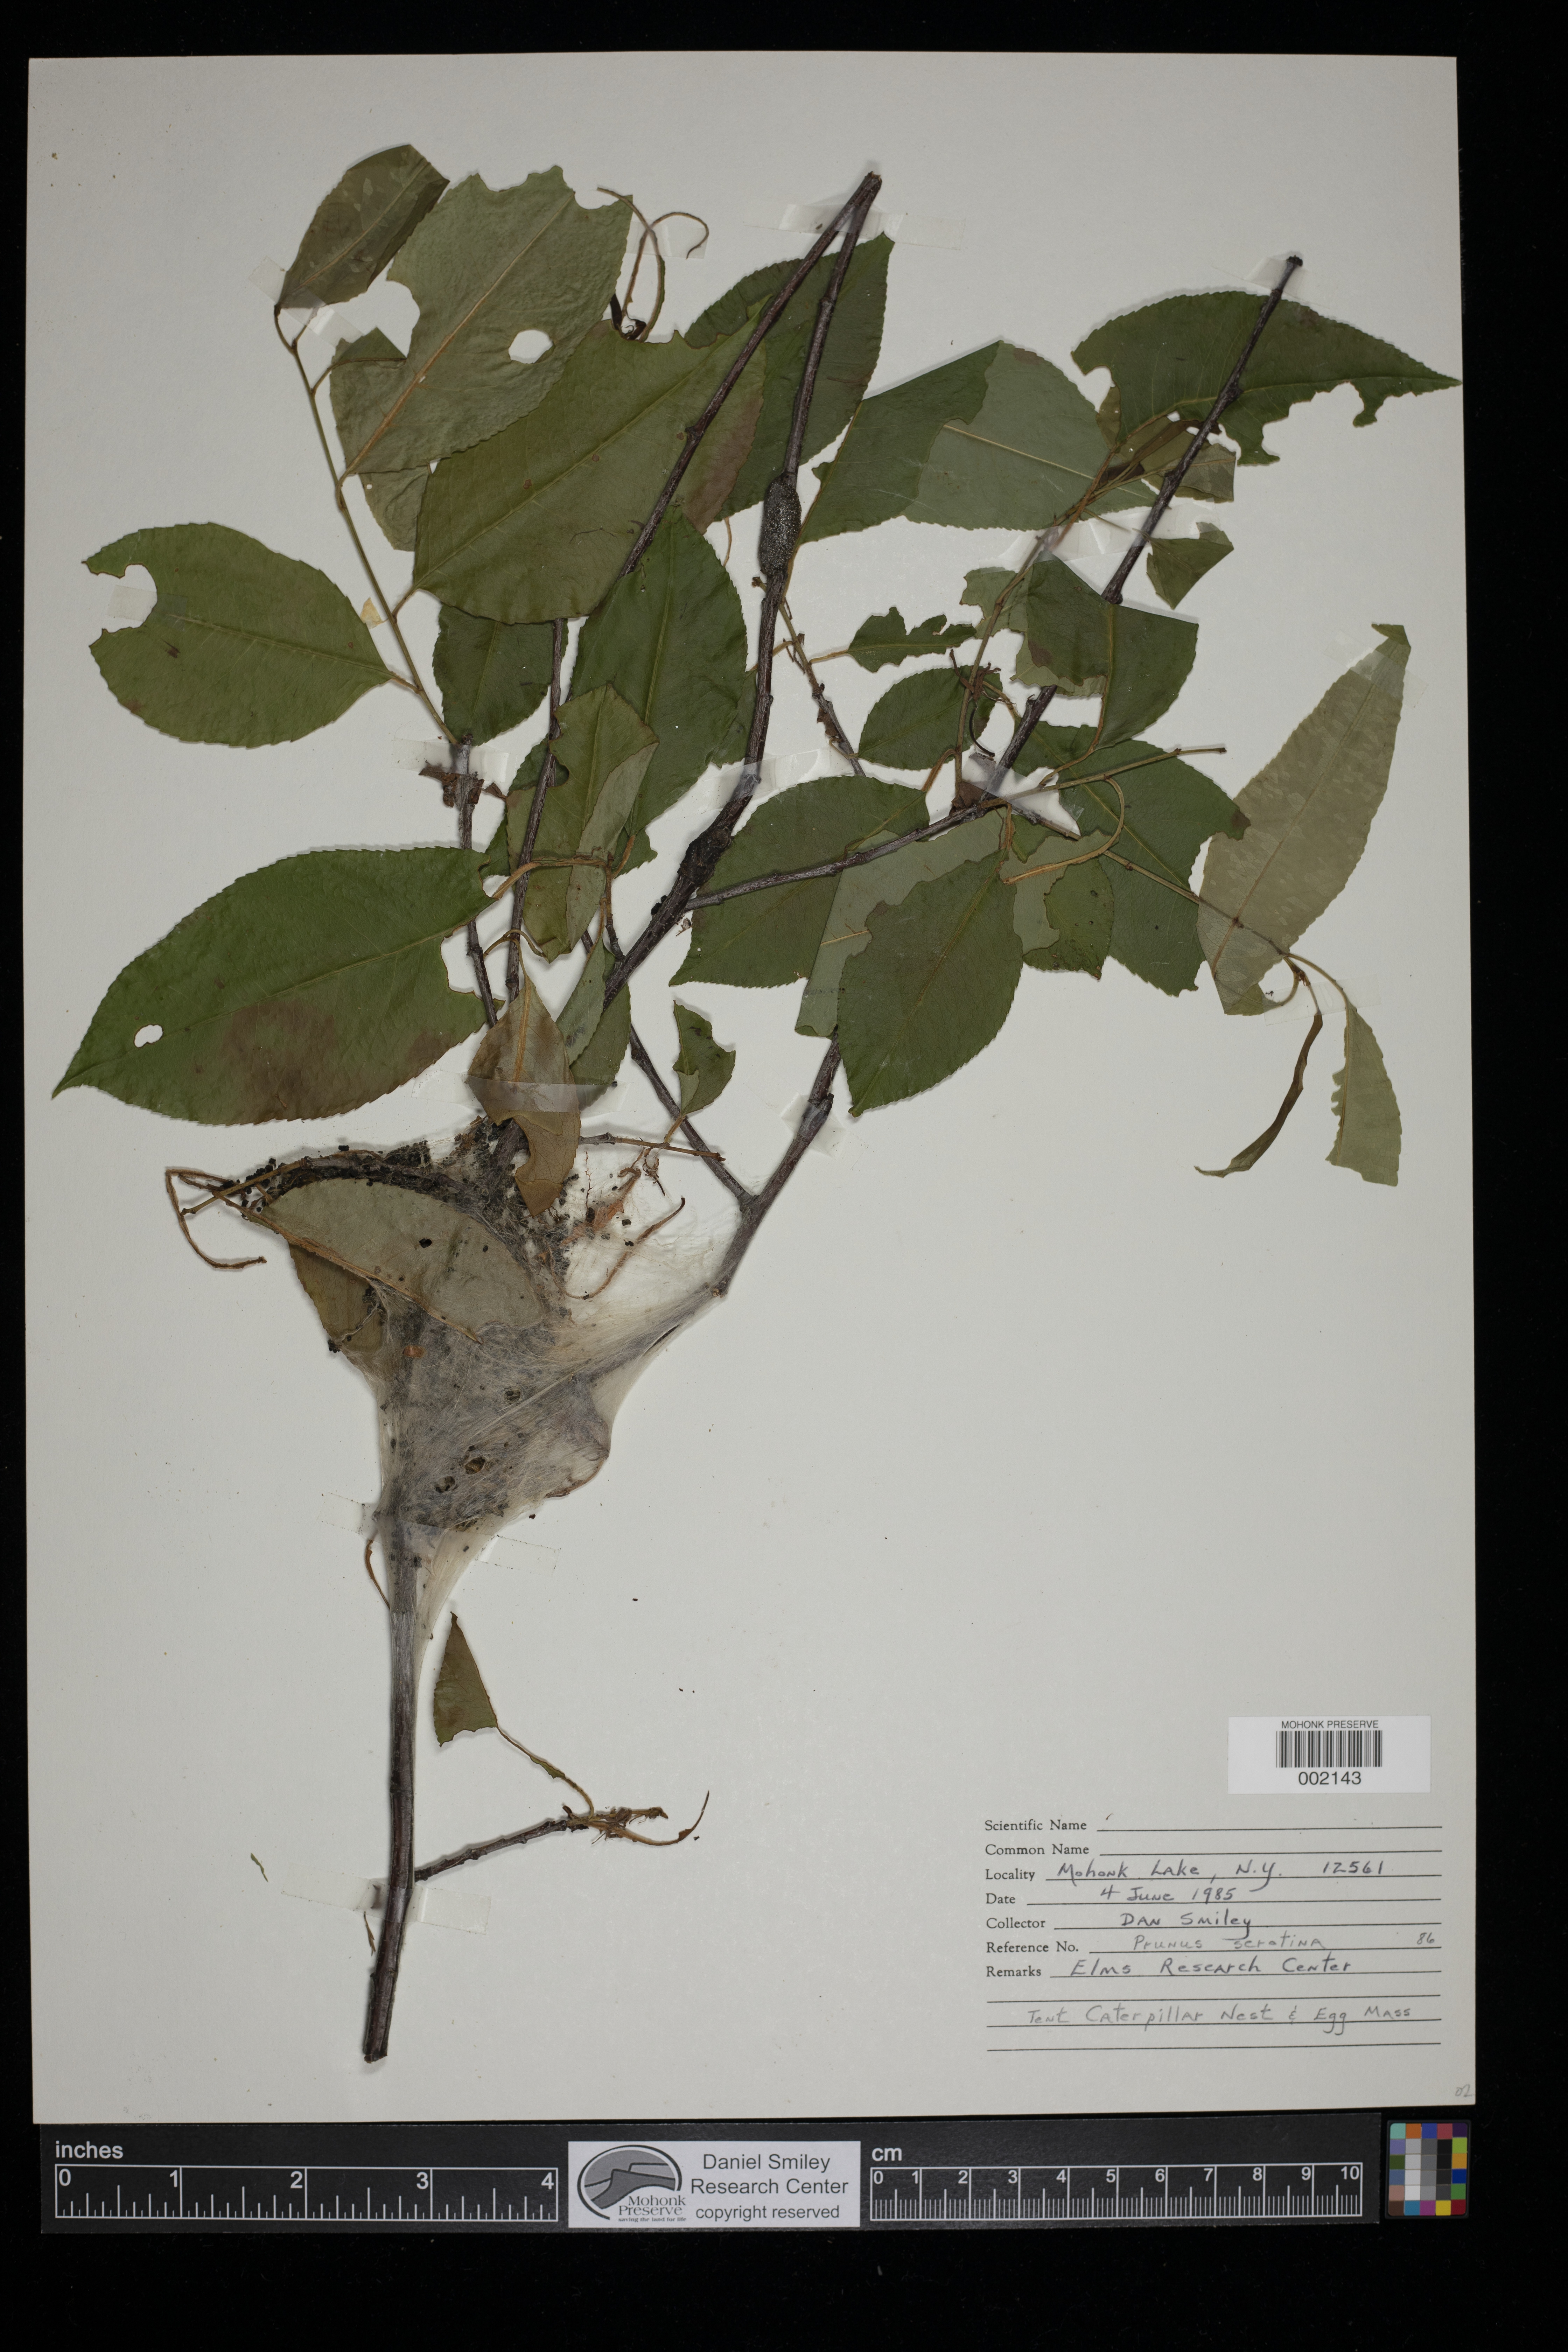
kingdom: Plantae
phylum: Tracheophyta
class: Magnoliopsida
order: Rosales
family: Rosaceae
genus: Prunus
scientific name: Prunus serotina
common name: Black cherry
